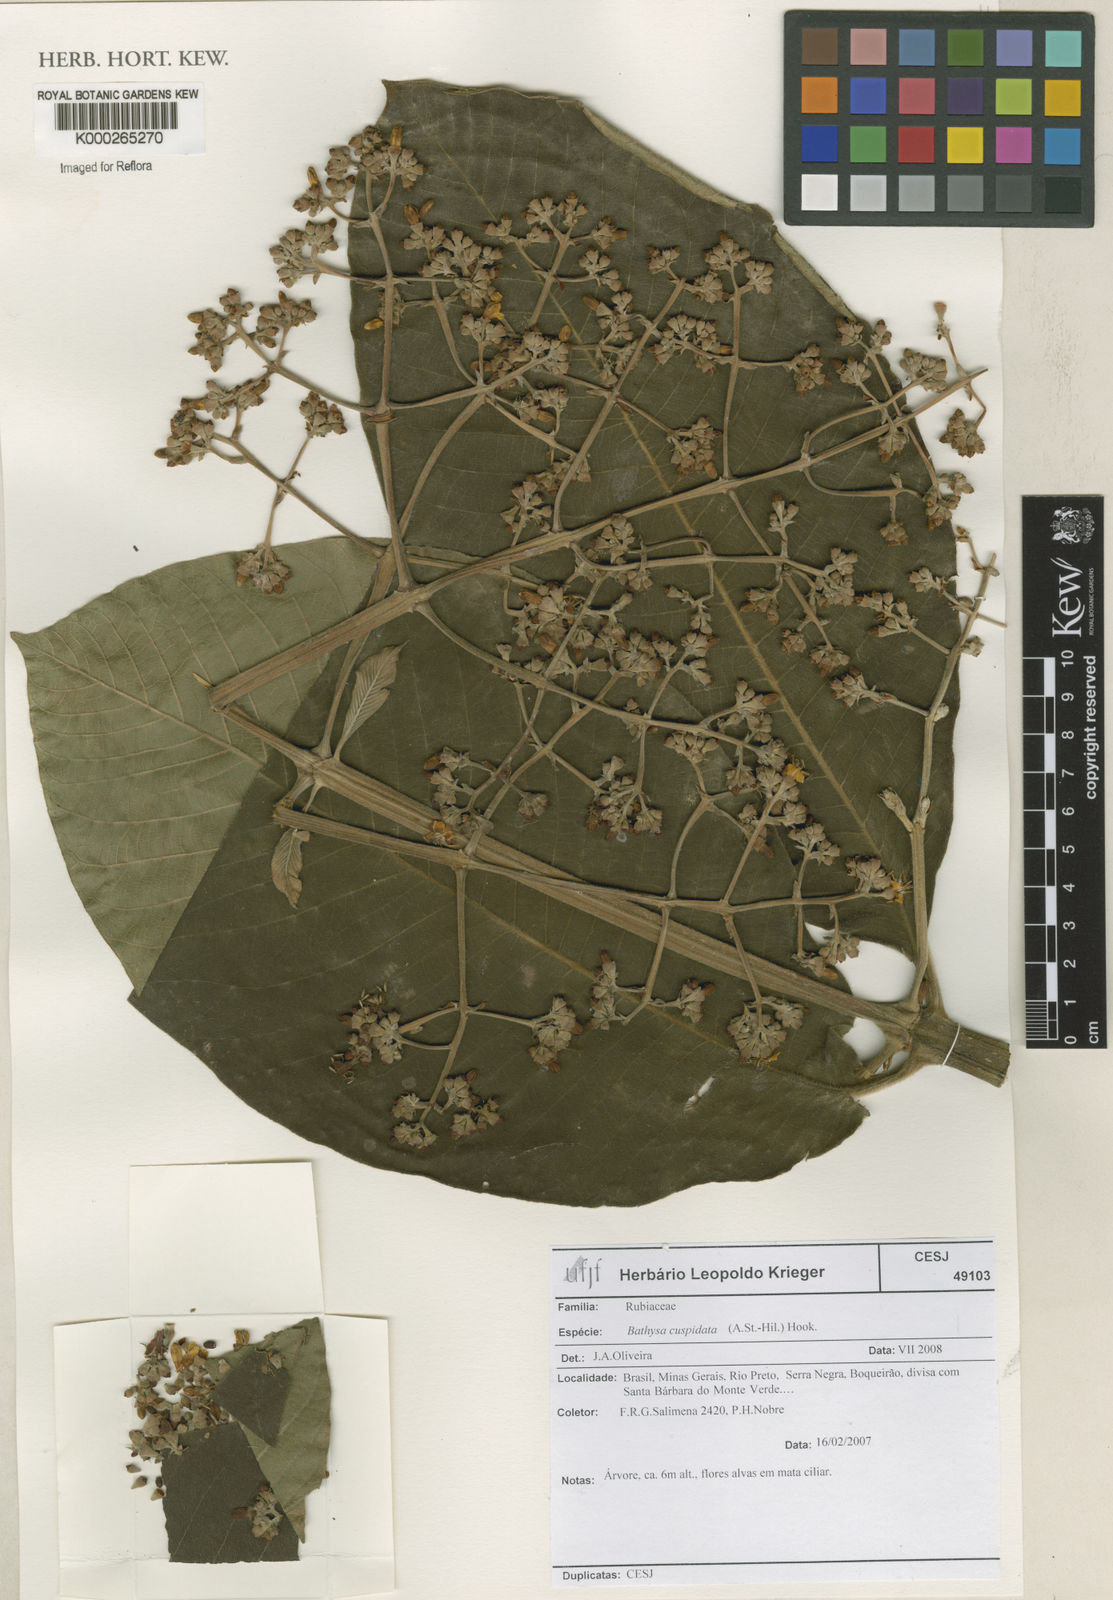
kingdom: Plantae
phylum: Tracheophyta
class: Magnoliopsida
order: Gentianales
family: Rubiaceae
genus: Schizocalyx
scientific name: Schizocalyx cuspidatus
